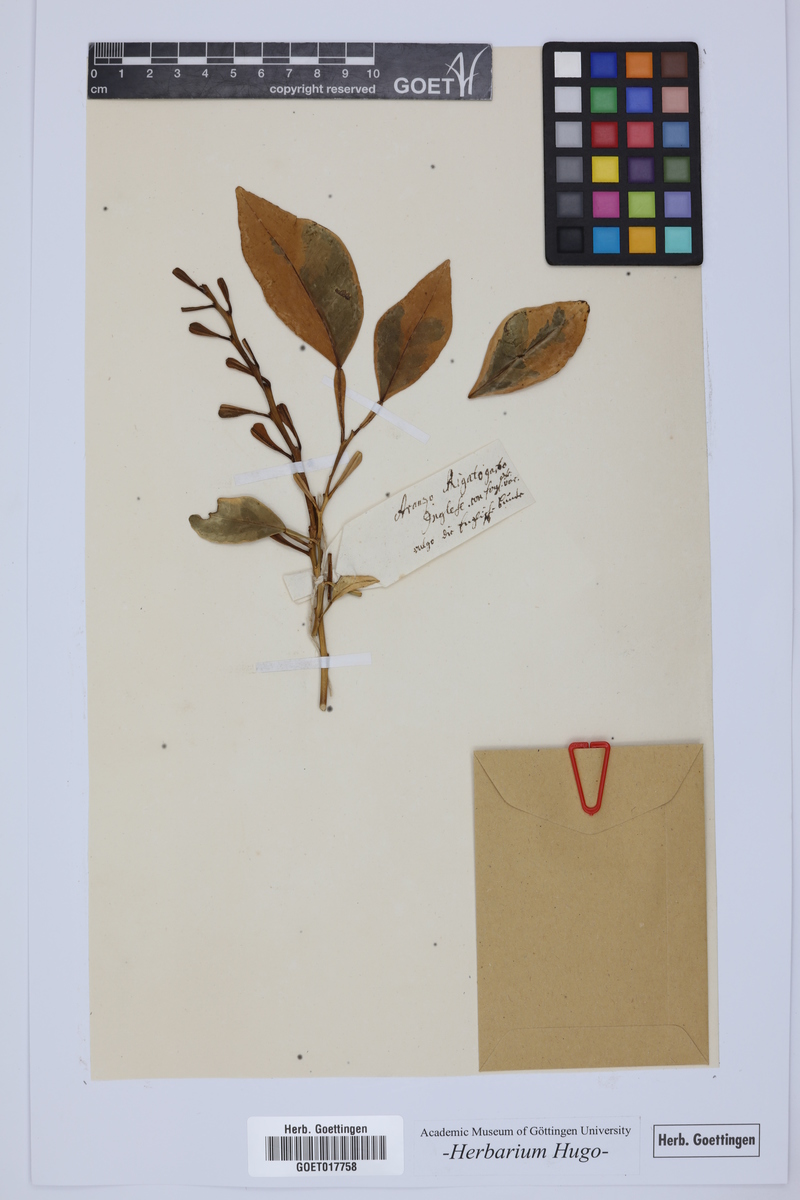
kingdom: Plantae
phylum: Tracheophyta
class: Magnoliopsida
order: Sapindales
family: Rutaceae
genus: Citrus
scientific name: Citrus
